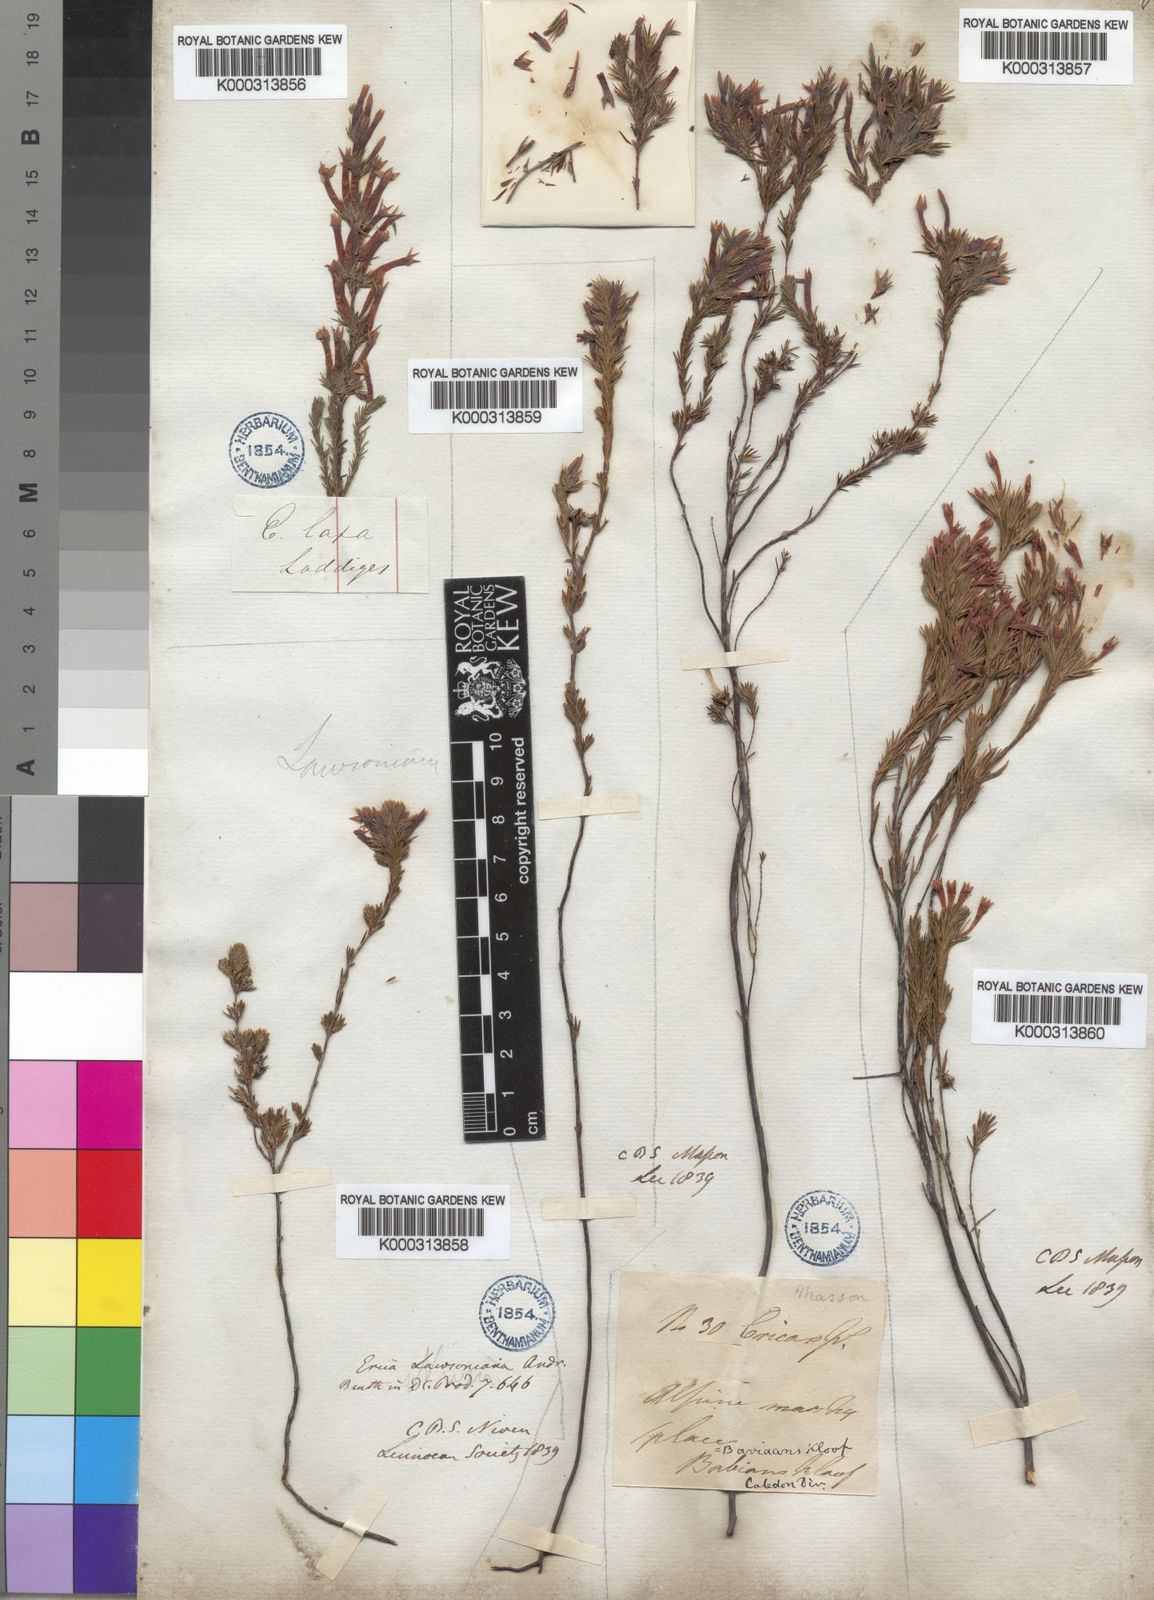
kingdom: Plantae
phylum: Tracheophyta
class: Magnoliopsida
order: Ericales
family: Ericaceae
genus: Erica
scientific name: Erica lawsonia
